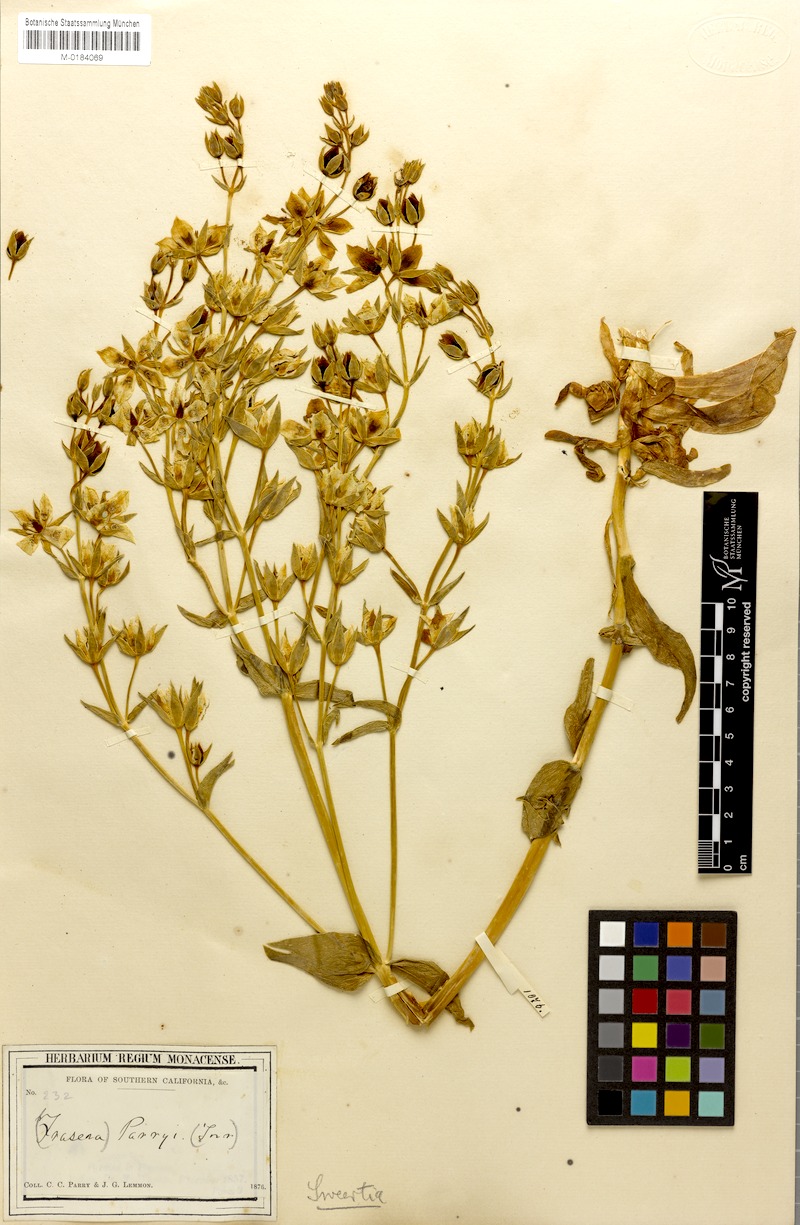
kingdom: Plantae
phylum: Tracheophyta
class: Magnoliopsida
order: Gentianales
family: Gentianaceae
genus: Frasera
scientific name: Frasera parryi
